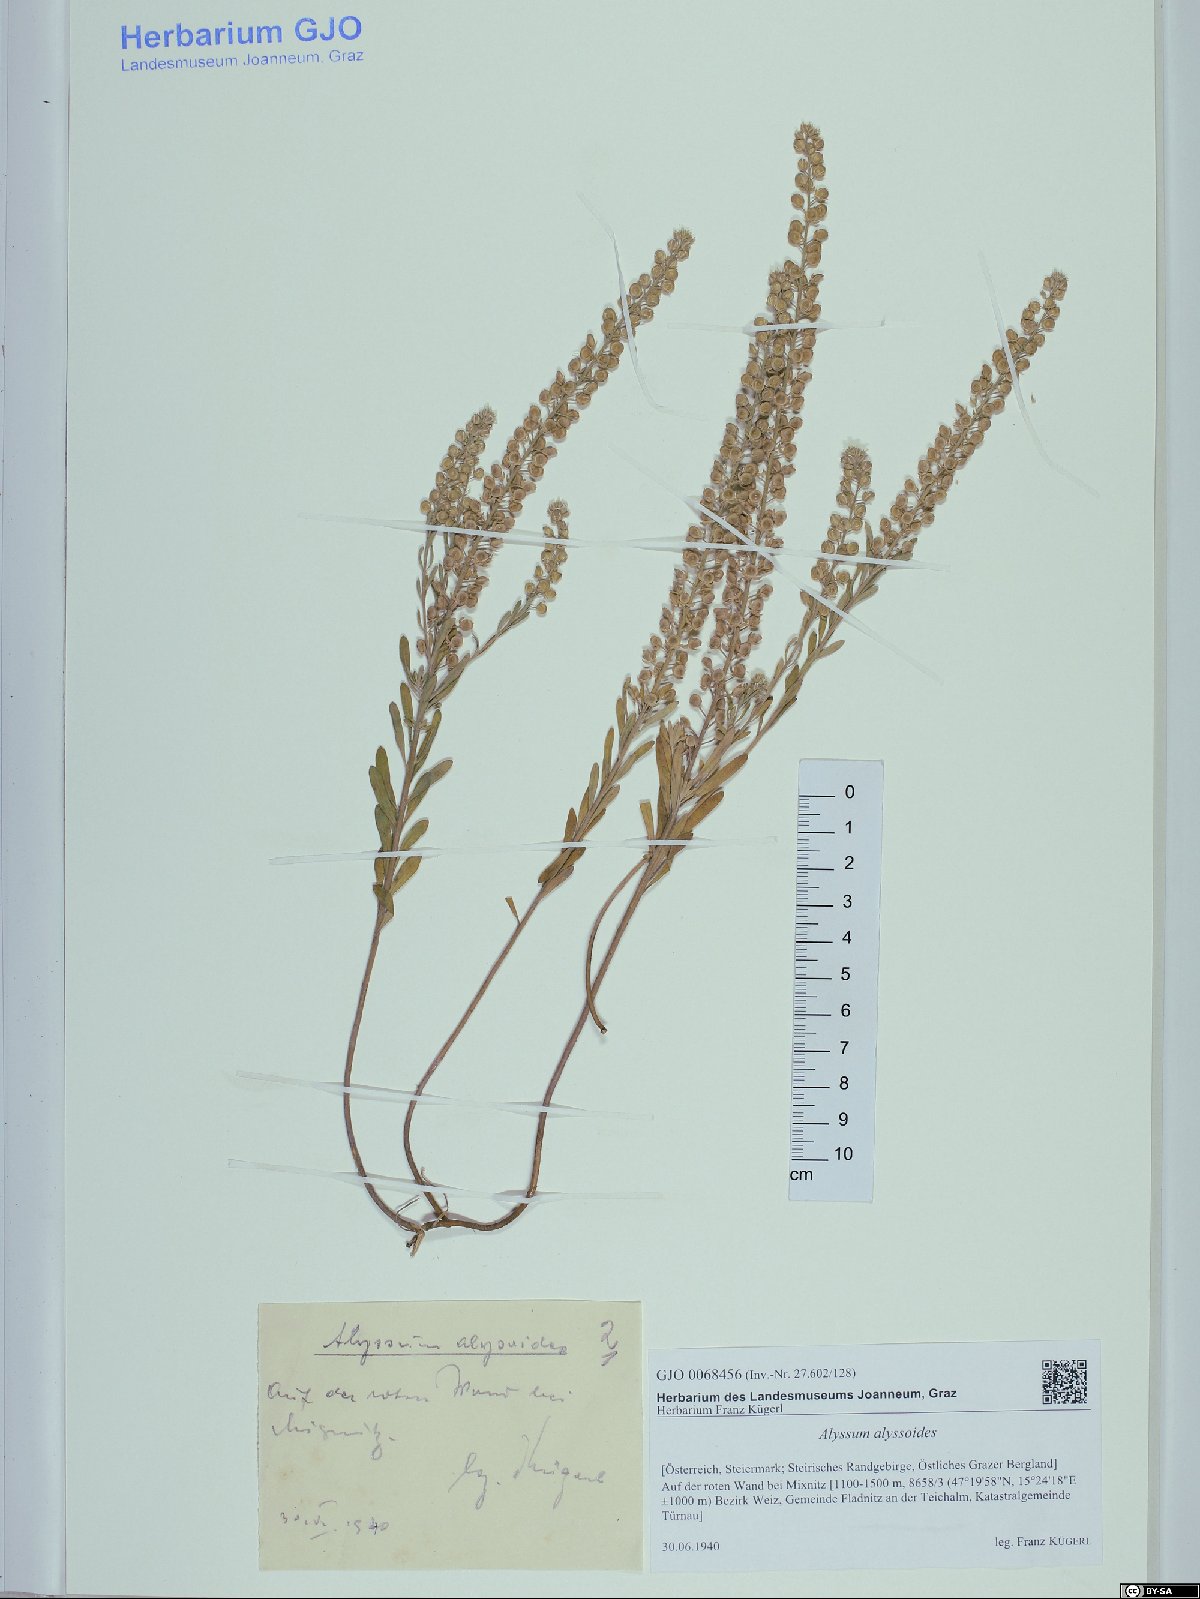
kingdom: Plantae
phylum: Tracheophyta
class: Magnoliopsida
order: Brassicales
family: Brassicaceae
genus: Alyssum
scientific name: Alyssum alyssoides
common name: Small alison
